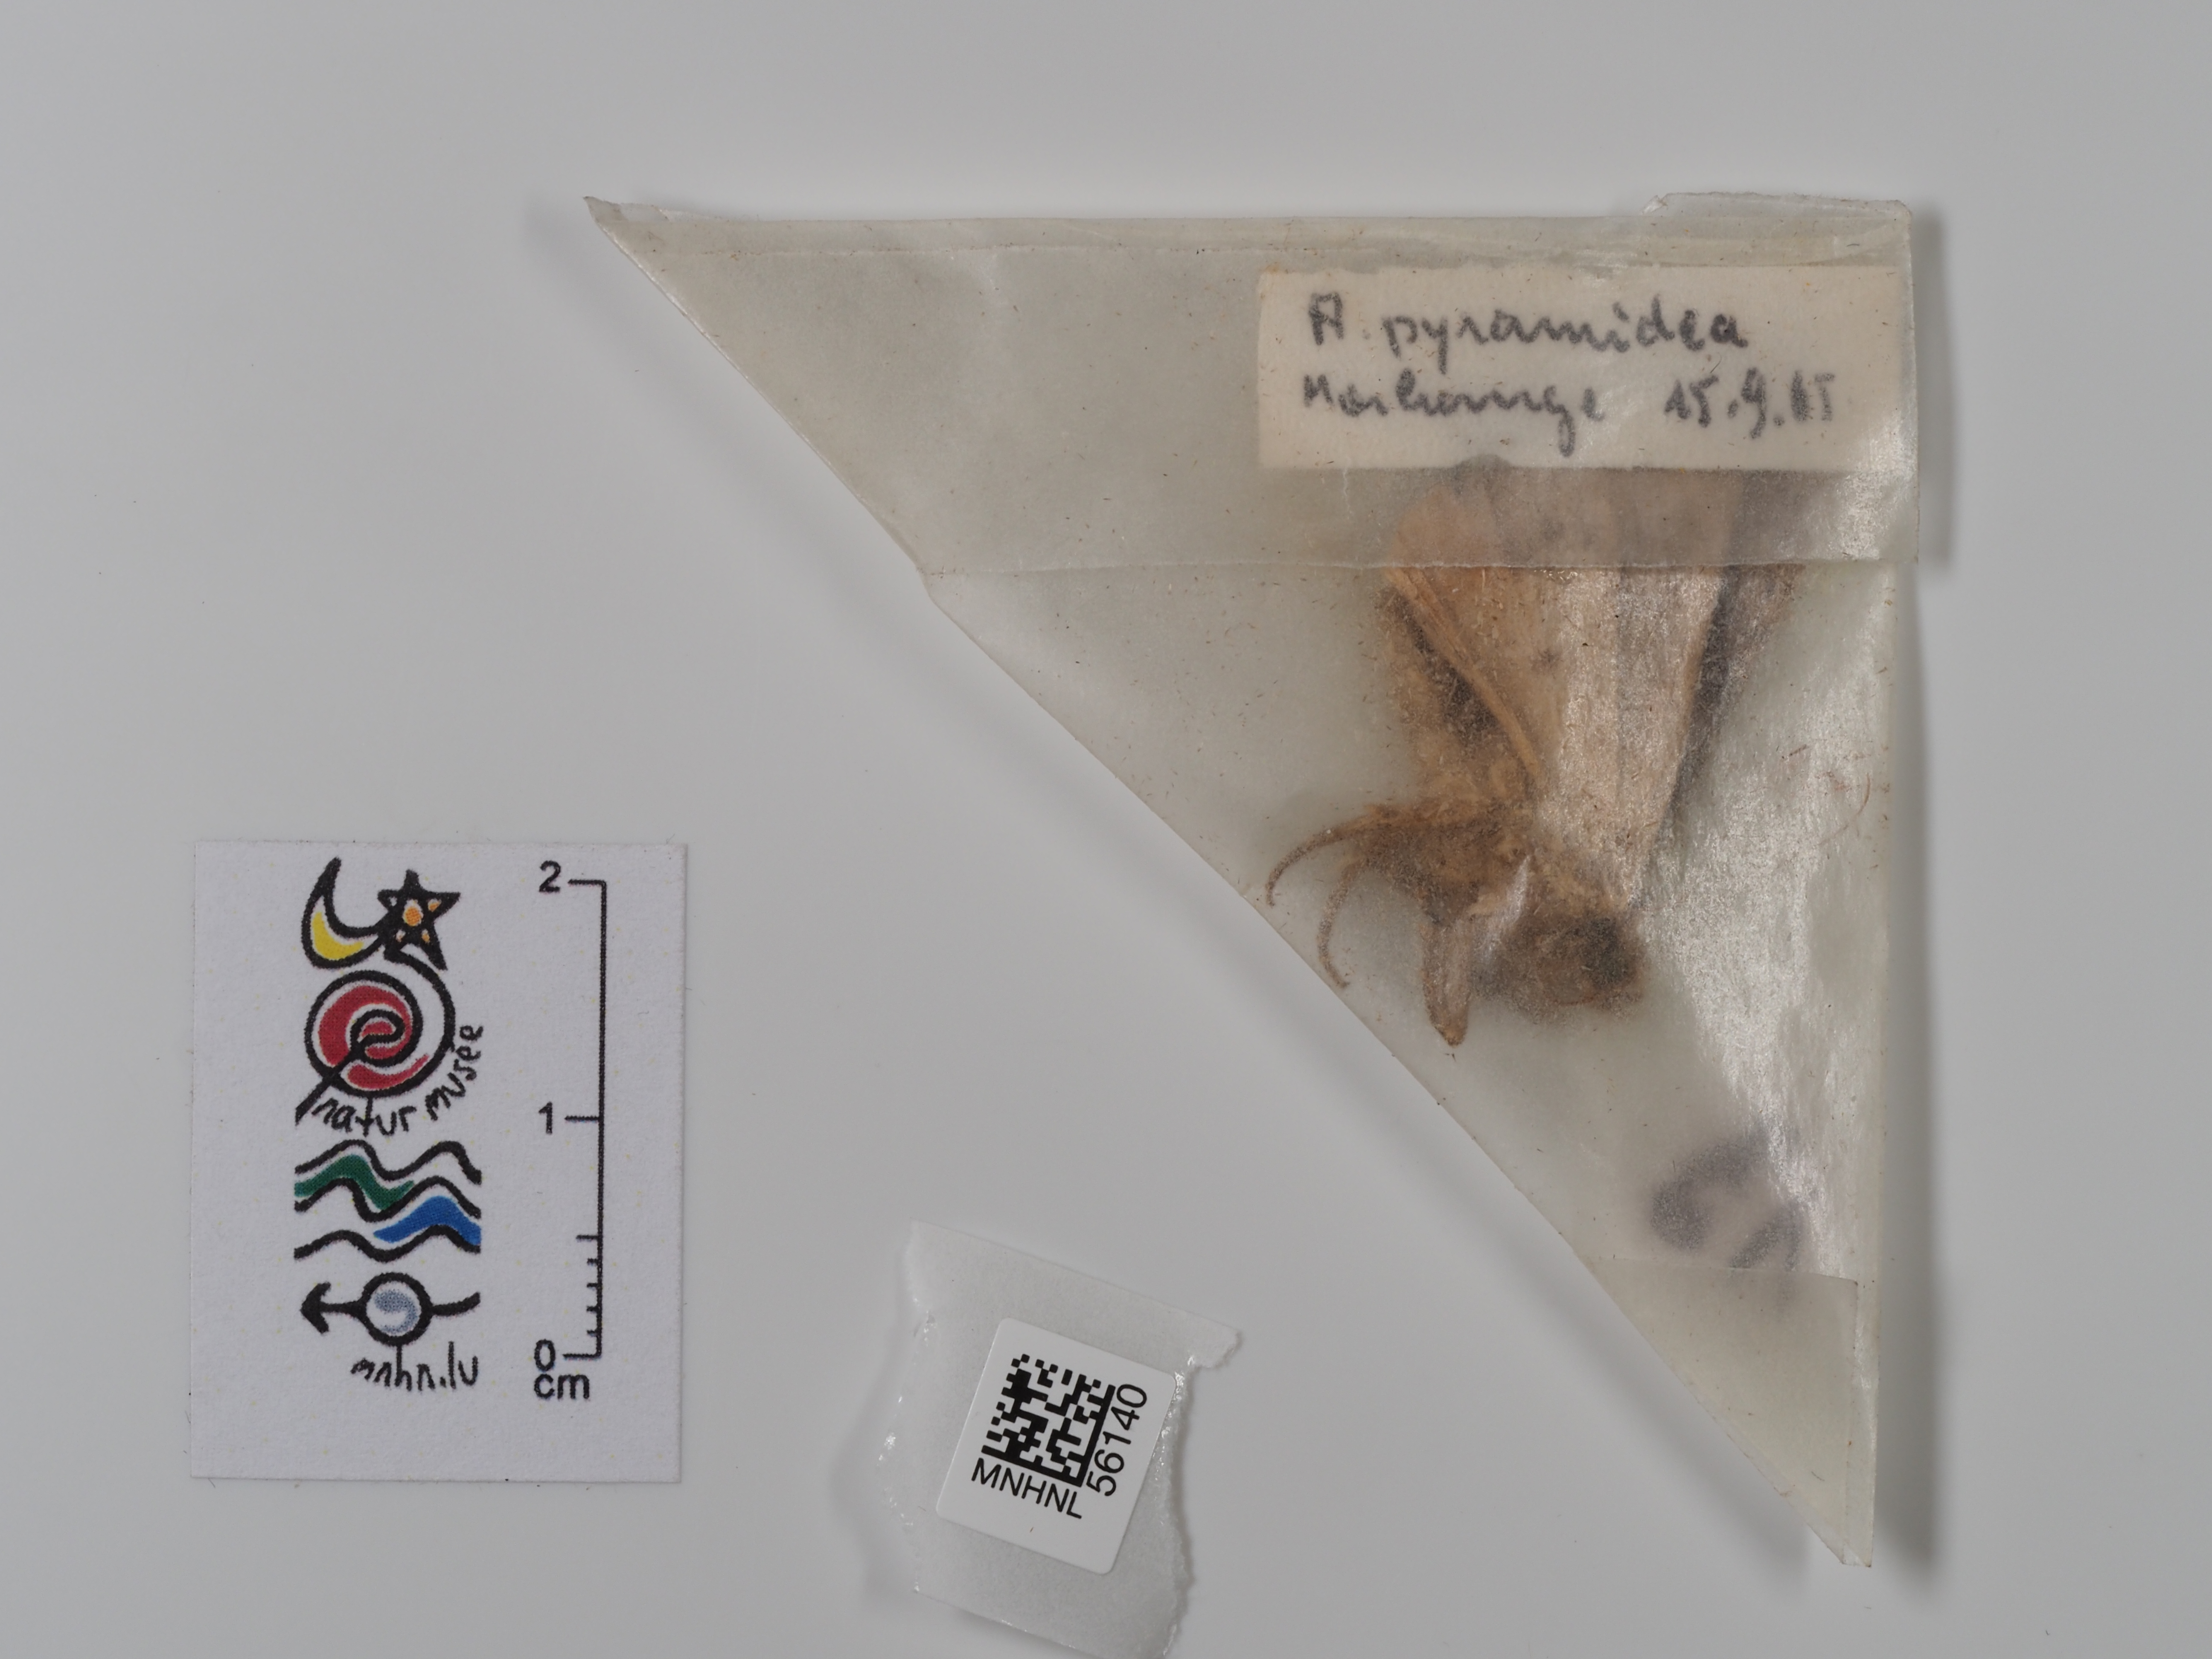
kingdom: Animalia
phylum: Arthropoda
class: Insecta
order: Lepidoptera
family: Noctuidae
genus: Amphipyra
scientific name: Amphipyra pyramidea
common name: Copper underwing
